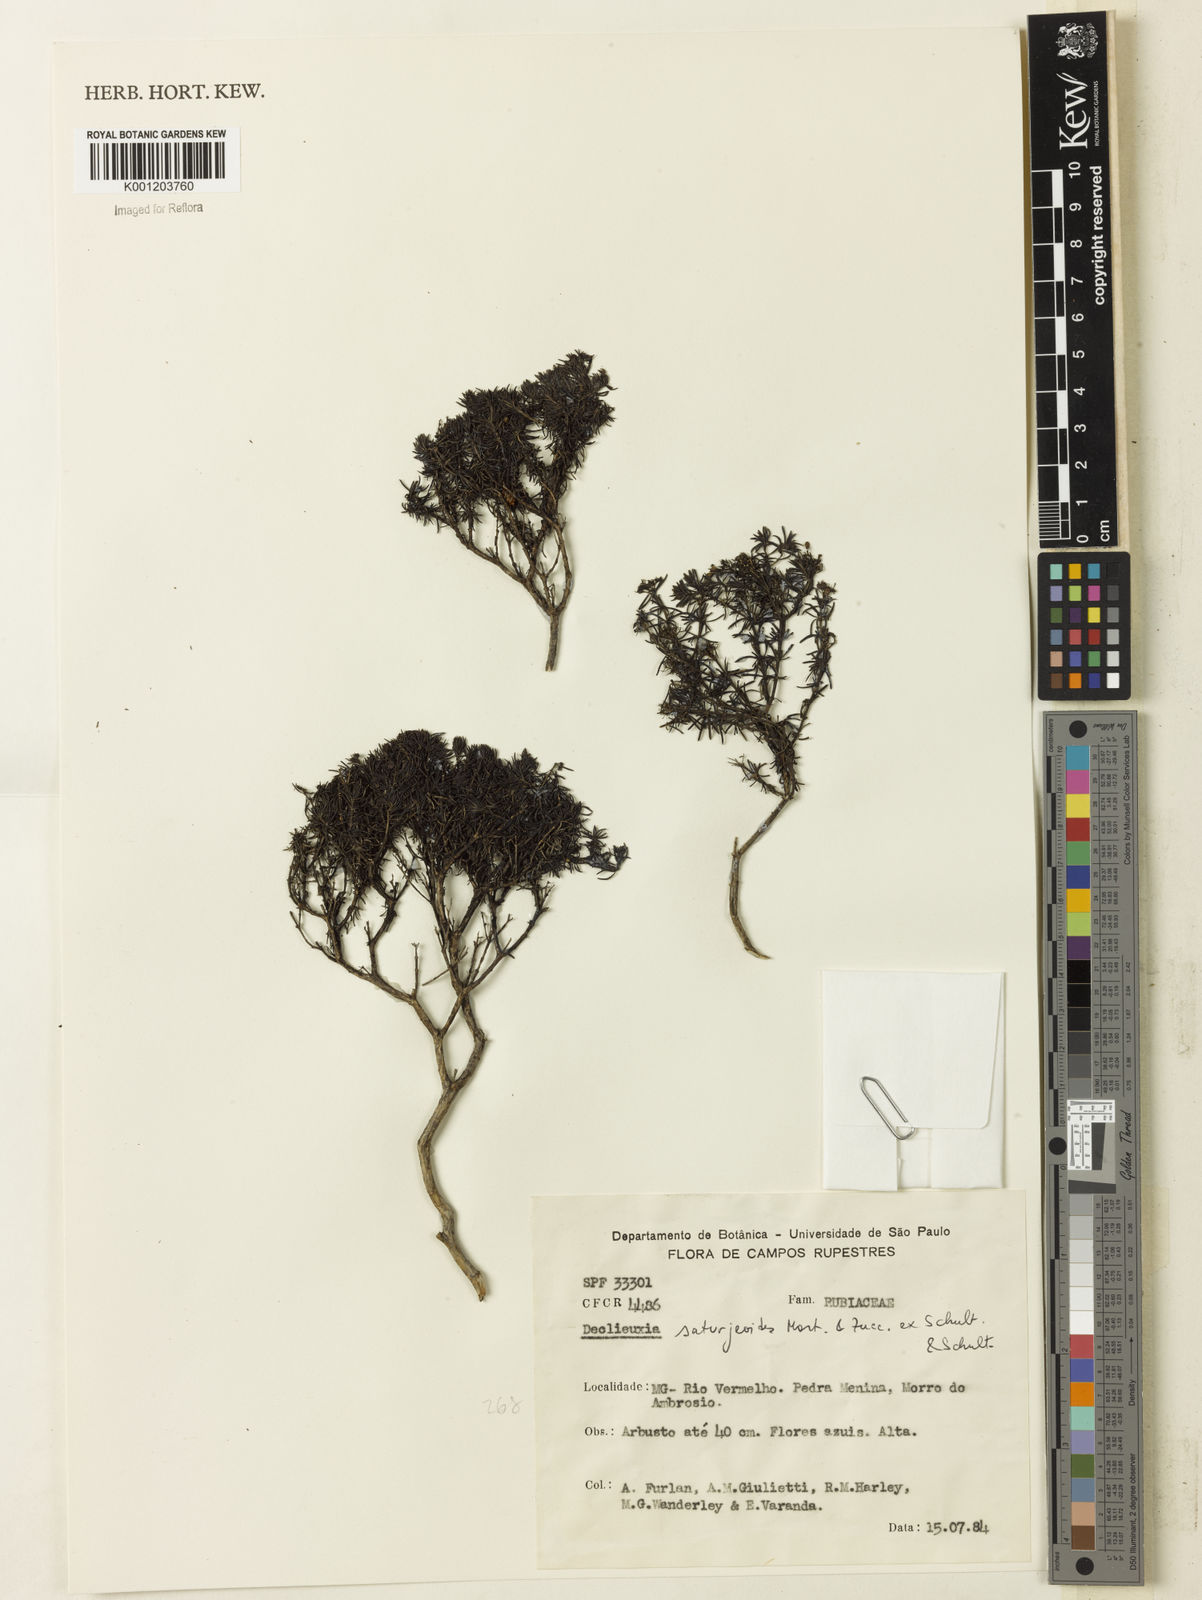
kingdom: Plantae
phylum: Tracheophyta
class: Magnoliopsida
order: Gentianales
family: Rubiaceae
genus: Declieuxia
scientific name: Declieuxia
